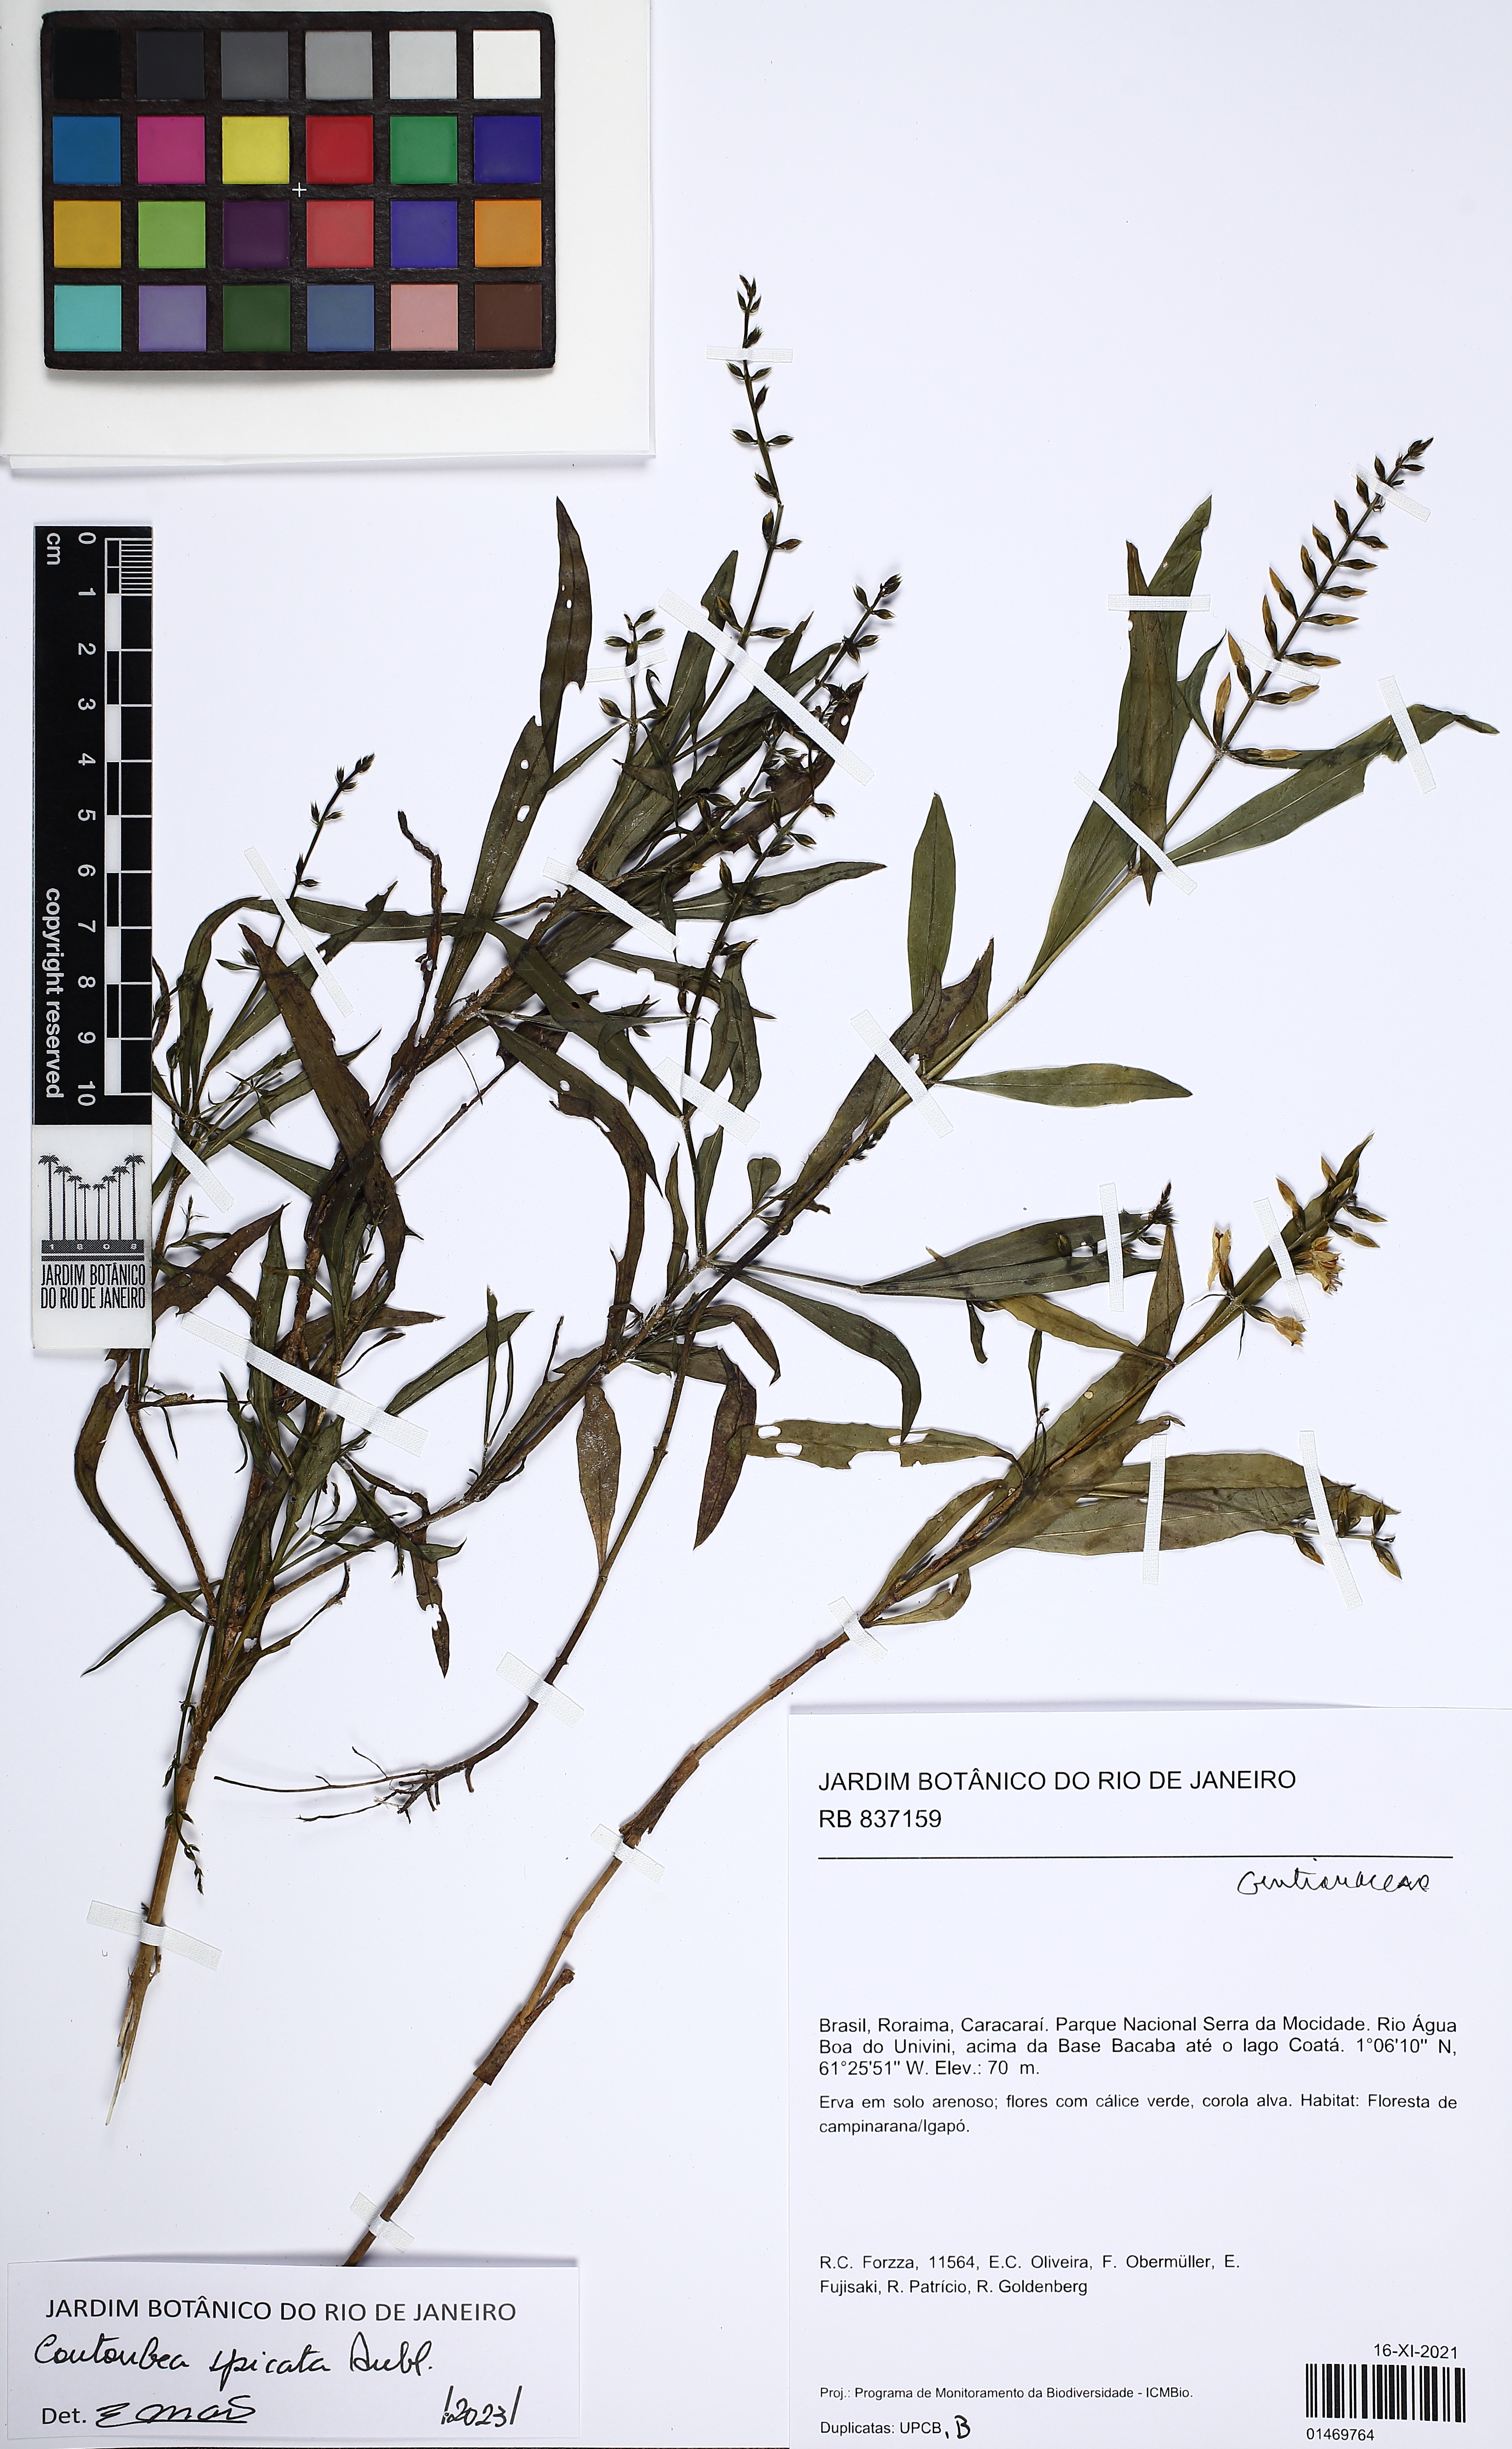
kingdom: Plantae
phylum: Tracheophyta
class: Magnoliopsida
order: Gentianales
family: Gentianaceae
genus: Coutoubea
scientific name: Coutoubea spicata
